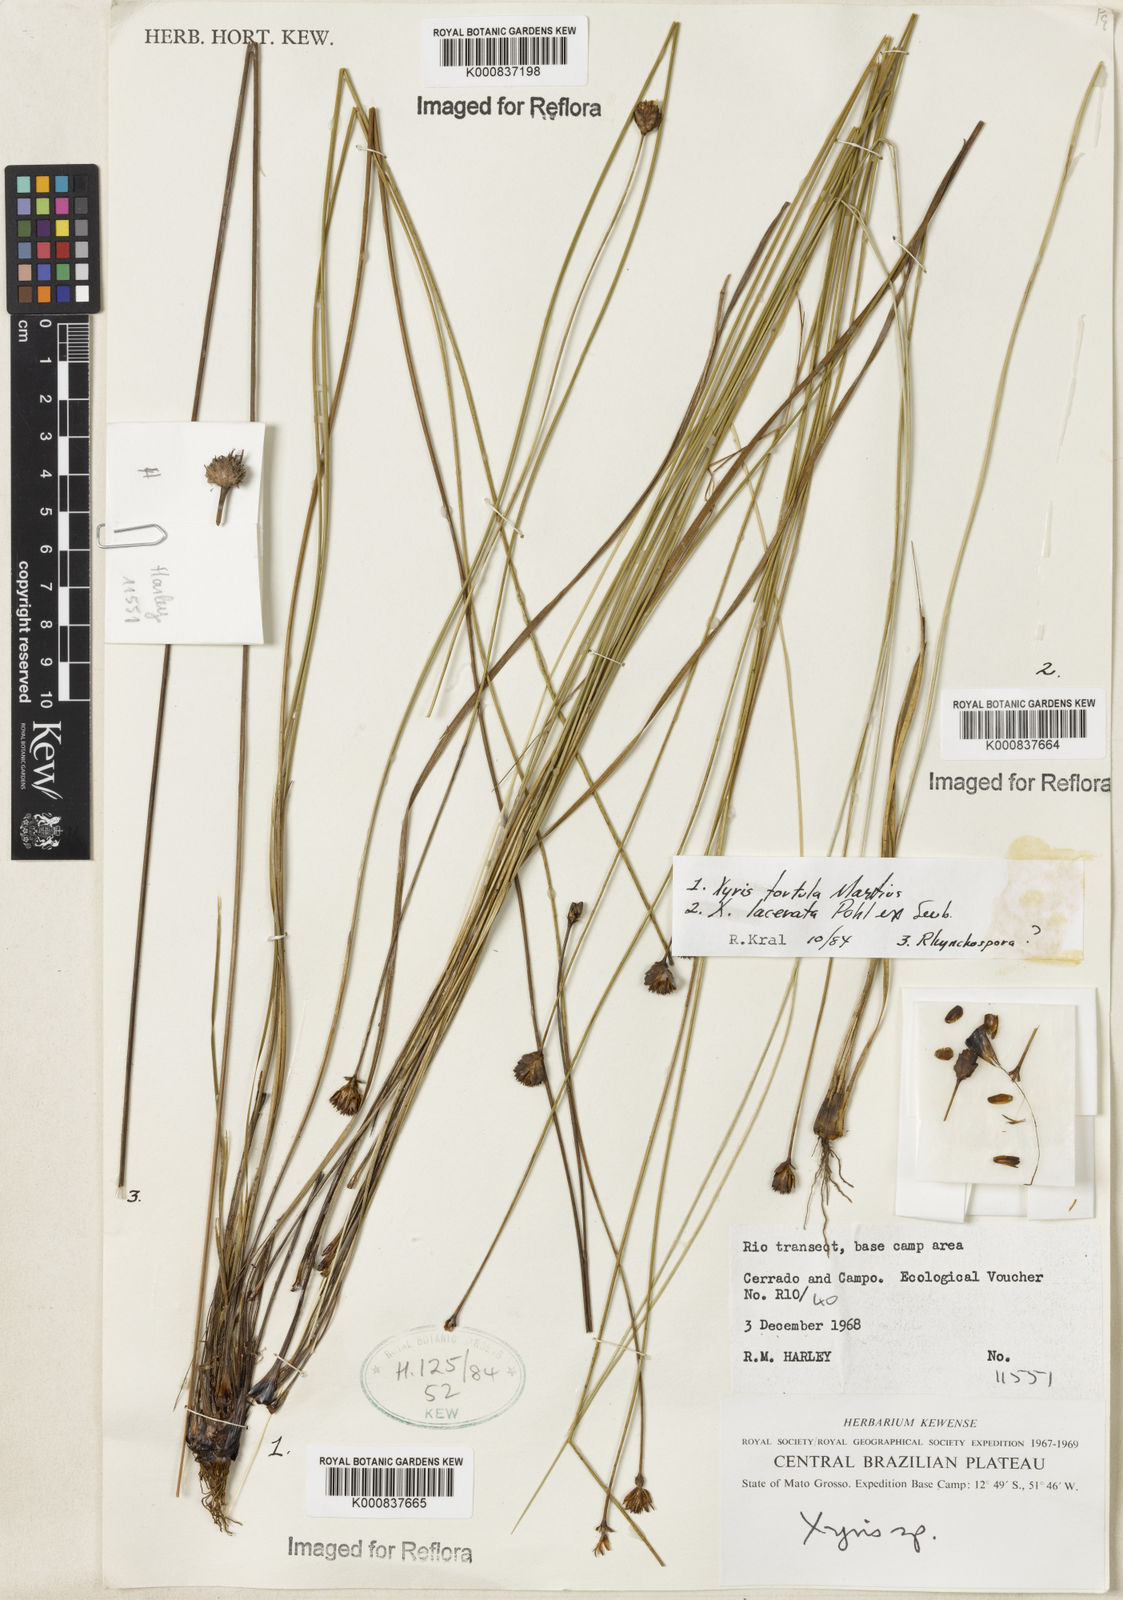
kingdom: Plantae
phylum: Tracheophyta
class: Liliopsida
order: Poales
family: Xyridaceae
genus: Xyris
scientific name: Xyris tortula
